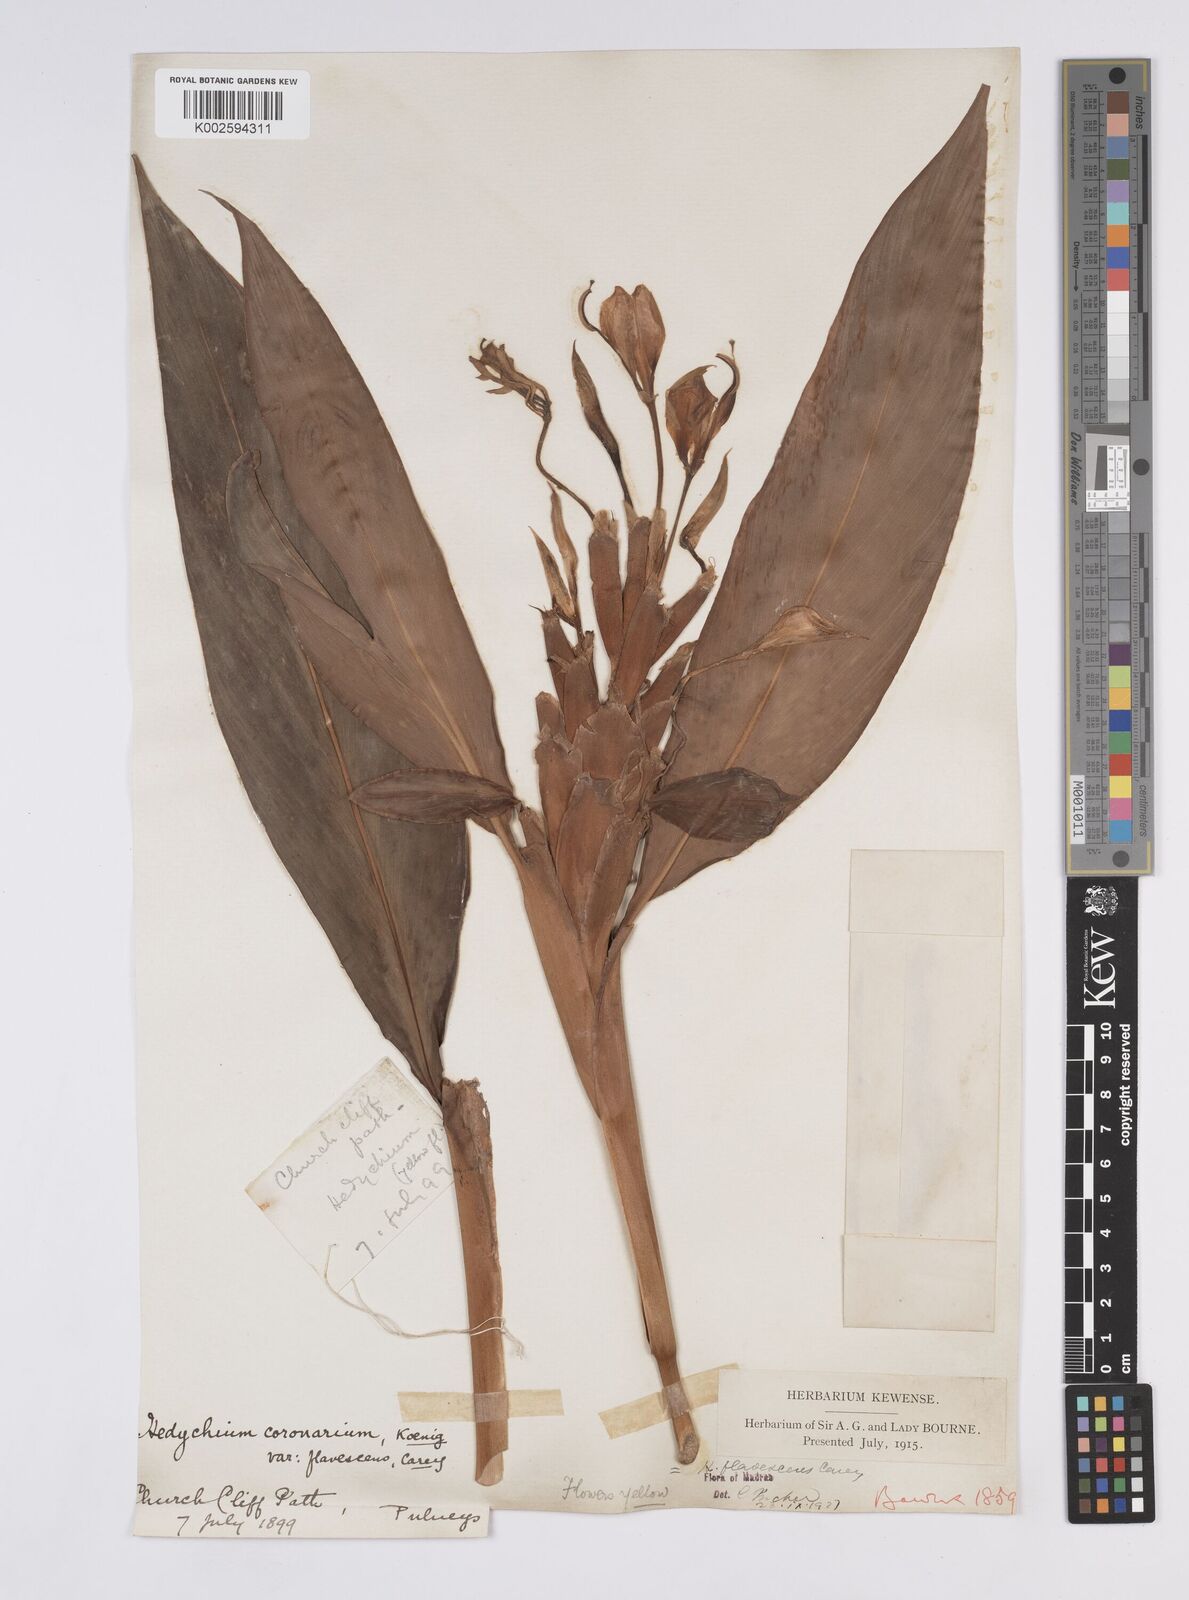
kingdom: Plantae
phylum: Tracheophyta
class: Liliopsida
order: Zingiberales
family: Zingiberaceae
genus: Hedychium
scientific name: Hedychium flavescens
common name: Yellow ginger
